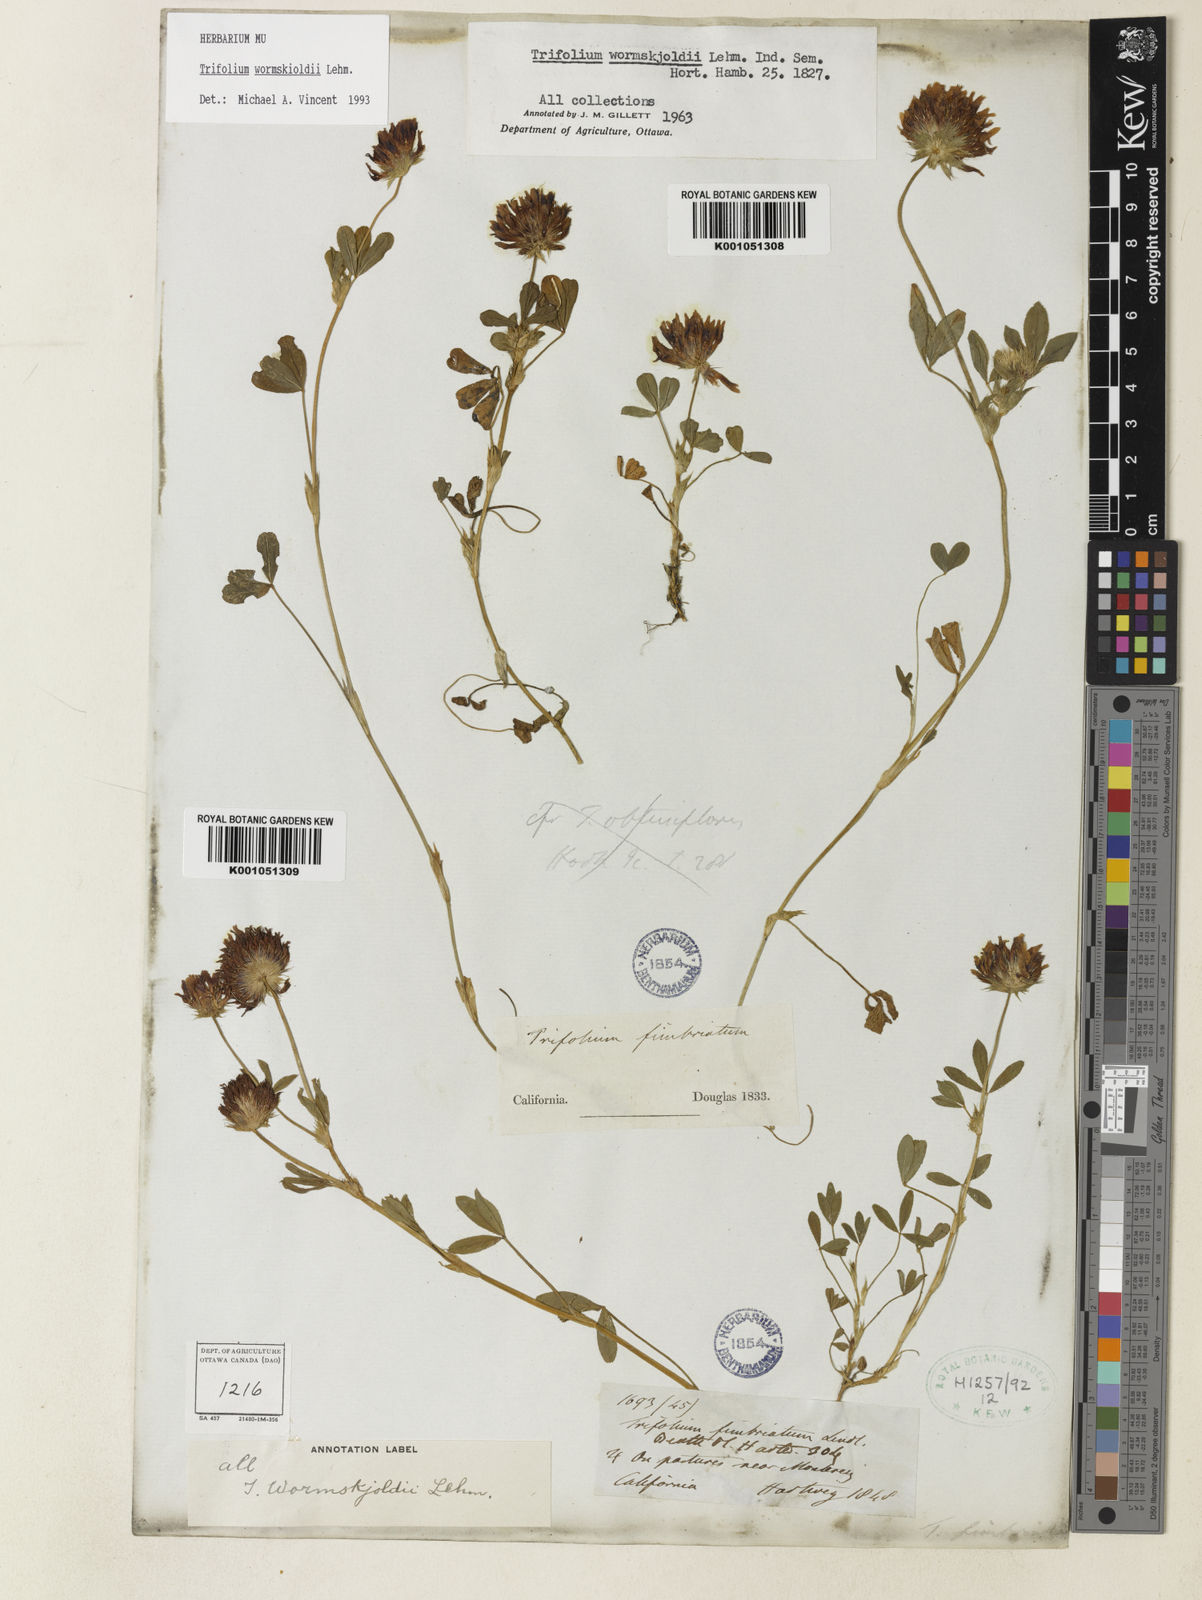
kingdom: Plantae
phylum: Tracheophyta
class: Magnoliopsida
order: Fabales
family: Fabaceae
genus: Trifolium
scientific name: Trifolium willdenovii
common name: Tomcat clover
